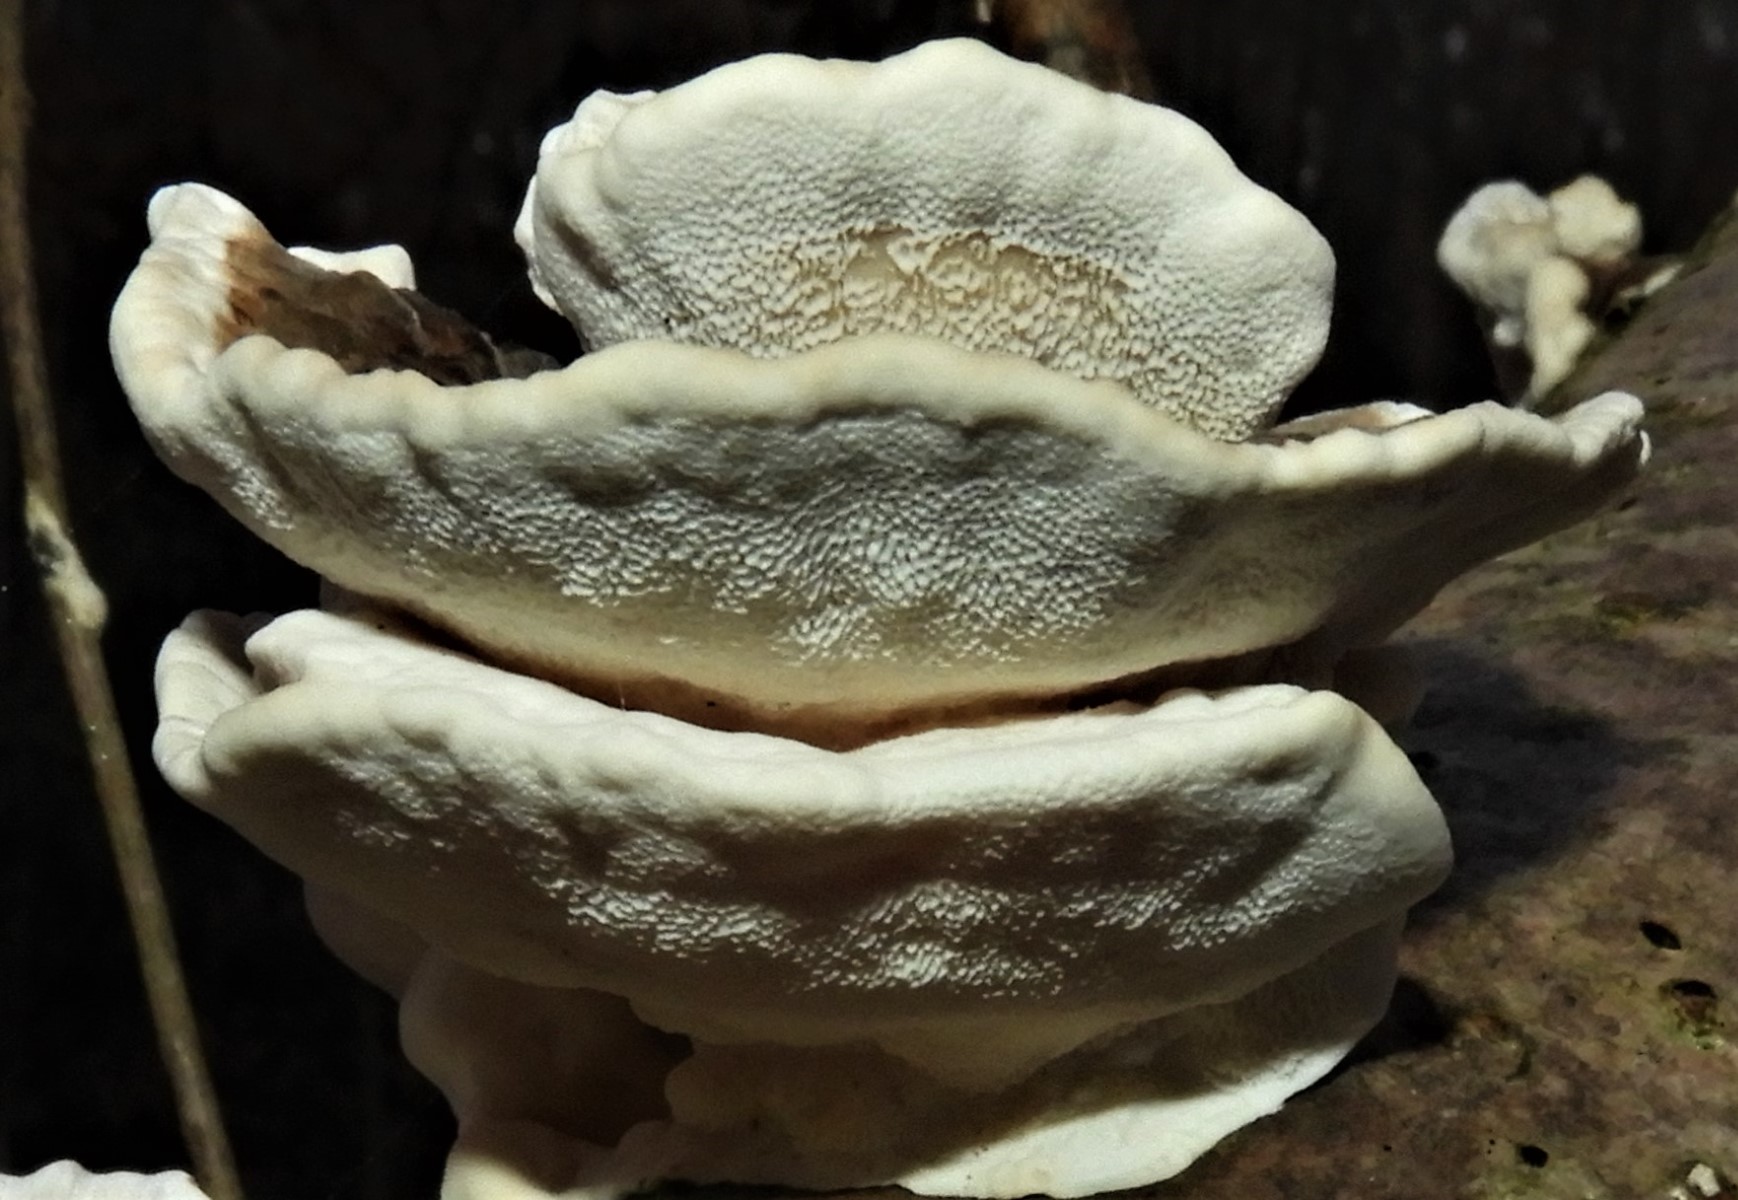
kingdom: Fungi
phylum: Basidiomycota
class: Agaricomycetes
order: Polyporales
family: Polyporaceae
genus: Trametes
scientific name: Trametes versicolor
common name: broget læderporesvamp
